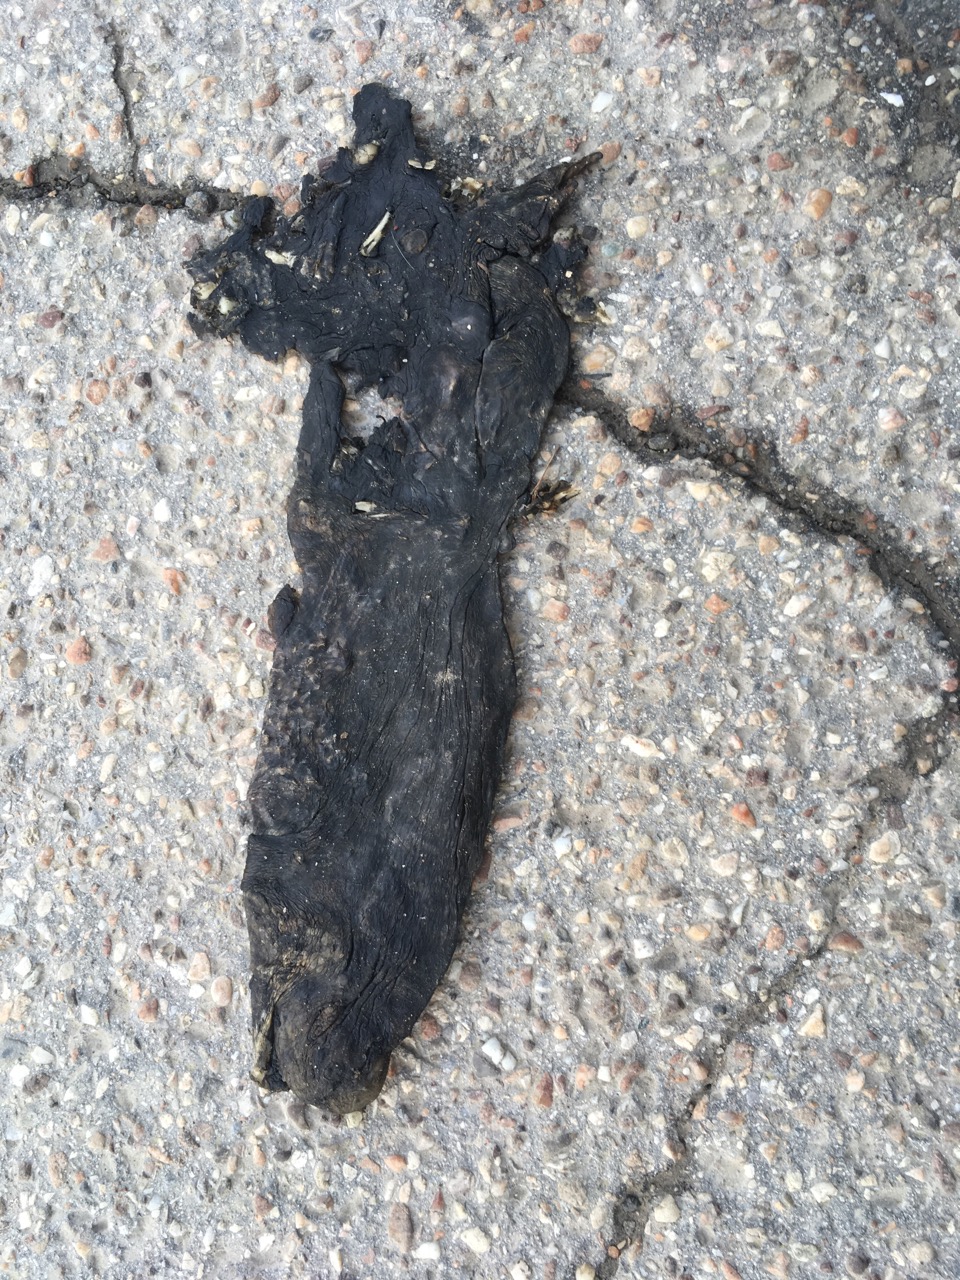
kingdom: Animalia
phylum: Chordata
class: Amphibia
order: Anura
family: Bufonidae
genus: Bufo
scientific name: Bufo bufo
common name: Common toad
